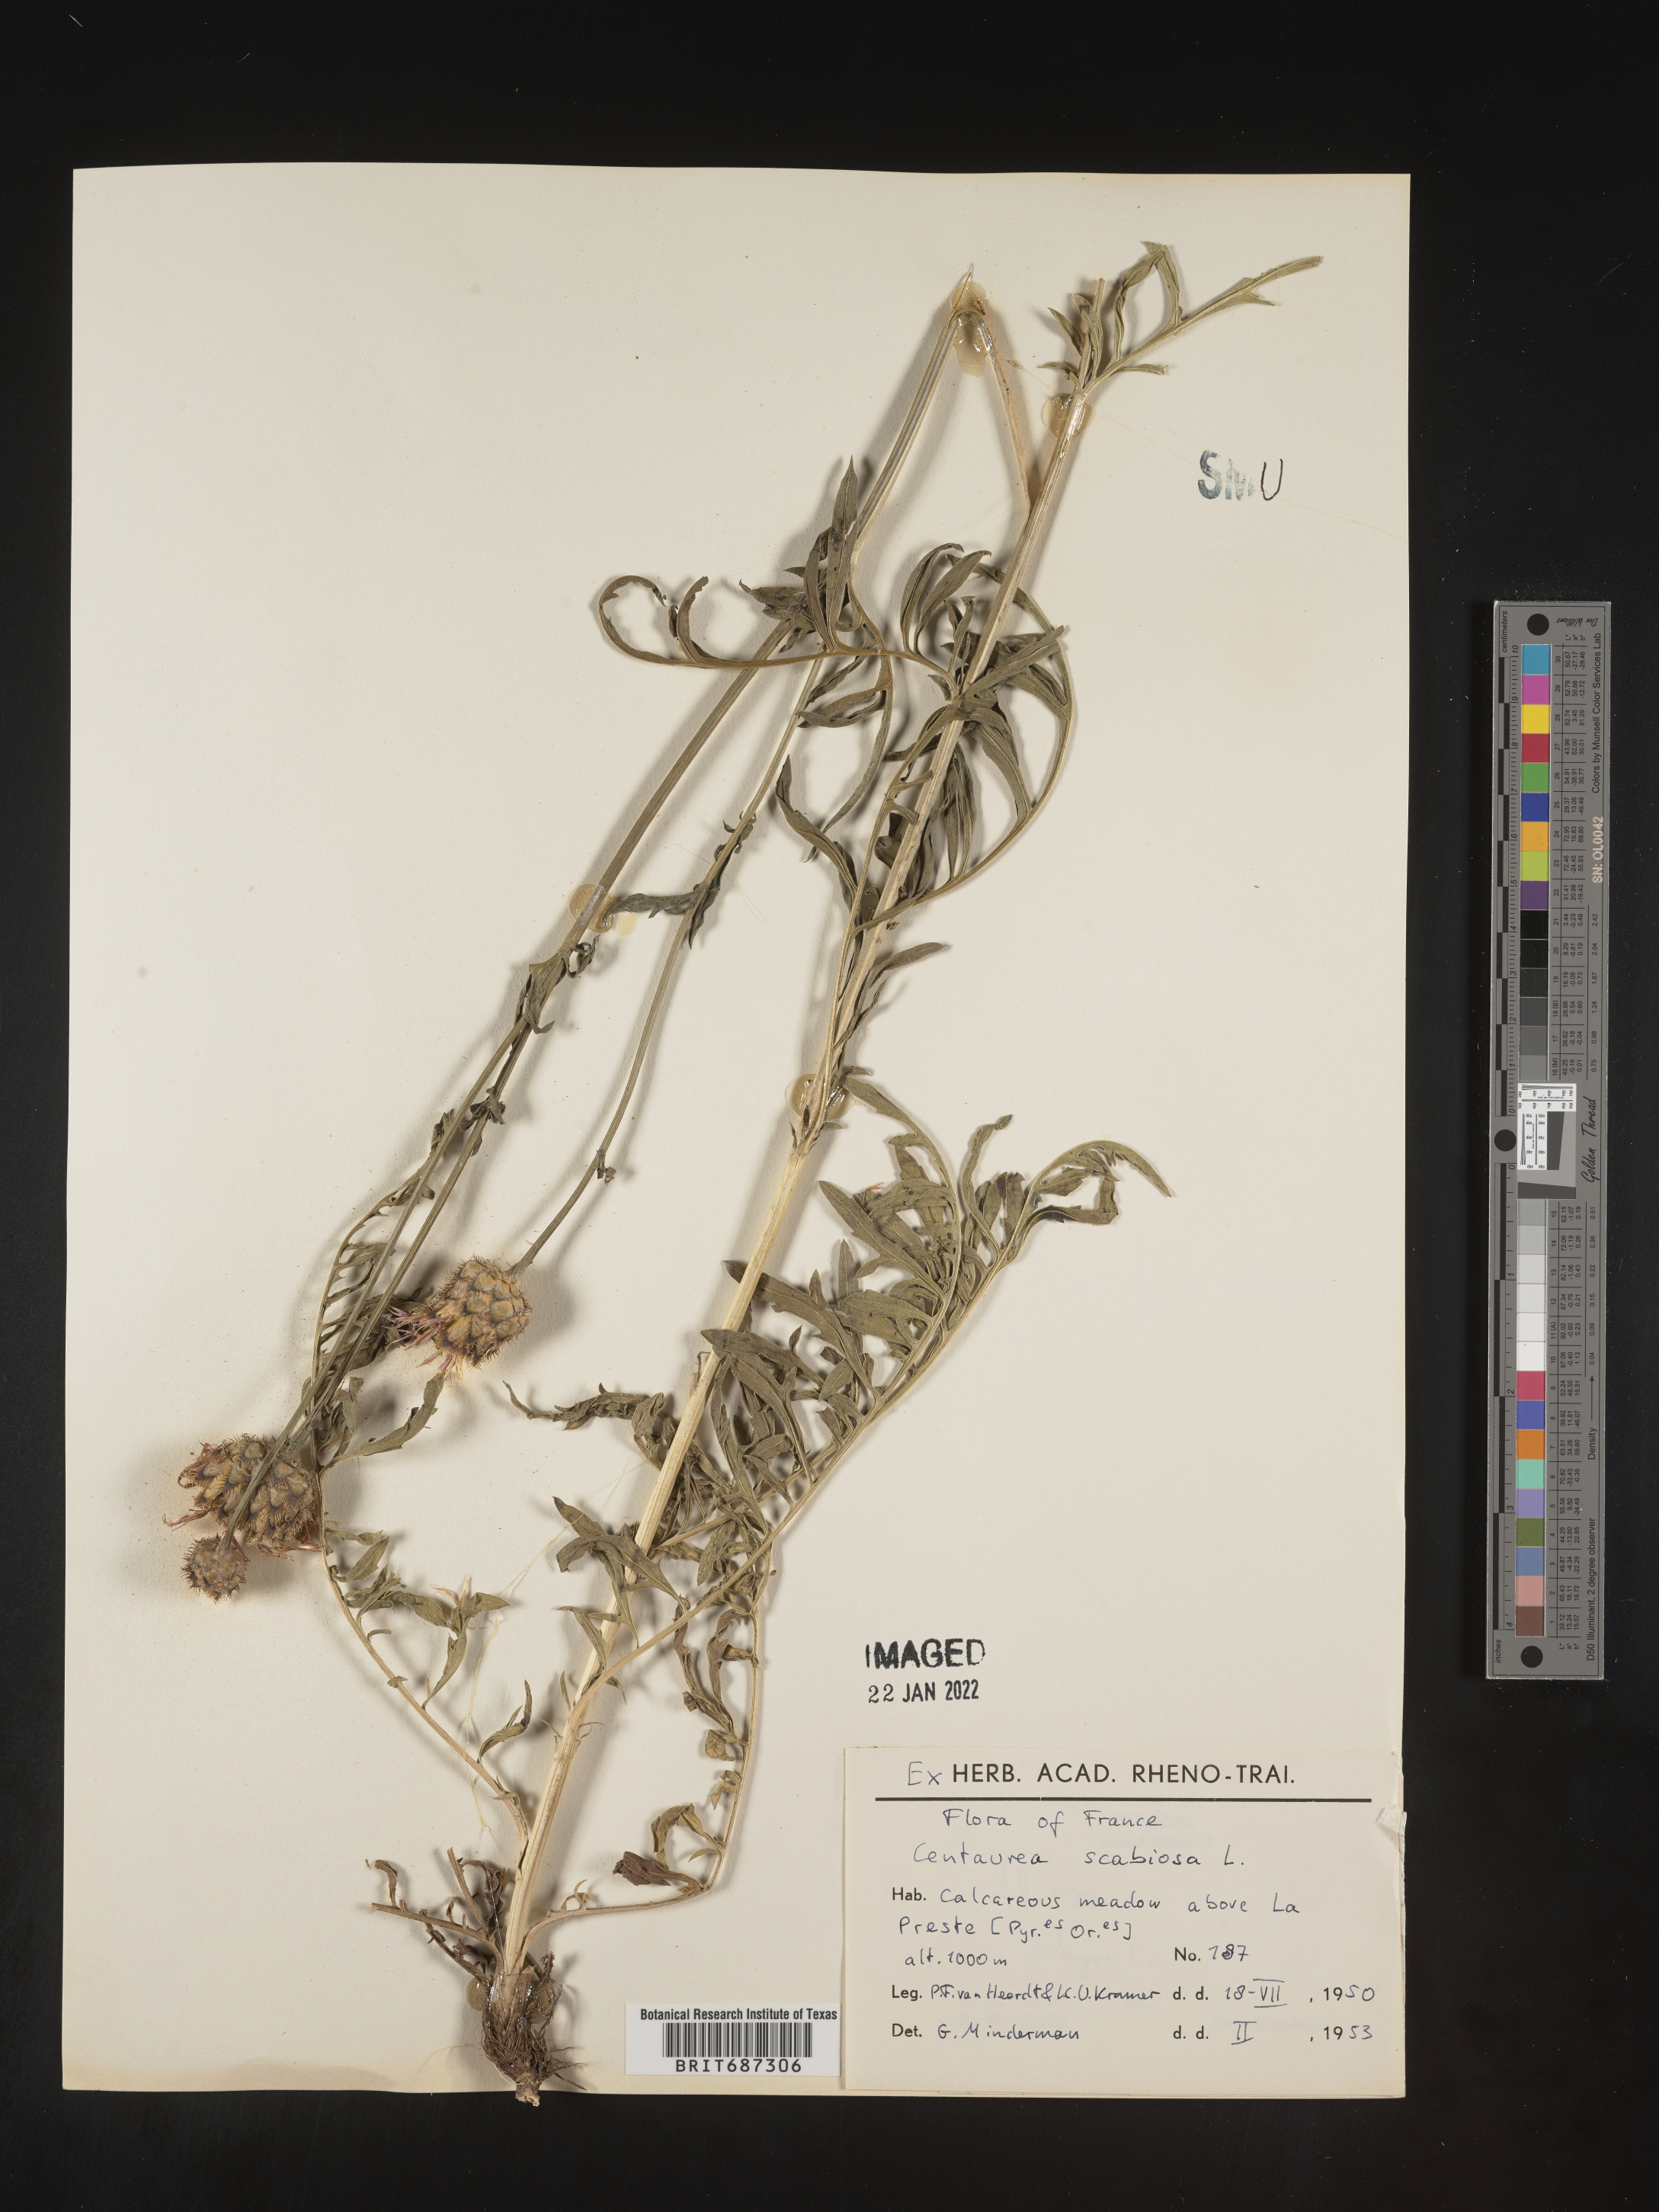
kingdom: Plantae
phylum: Tracheophyta
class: Magnoliopsida
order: Asterales
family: Asteraceae
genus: Centaurea
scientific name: Centaurea
